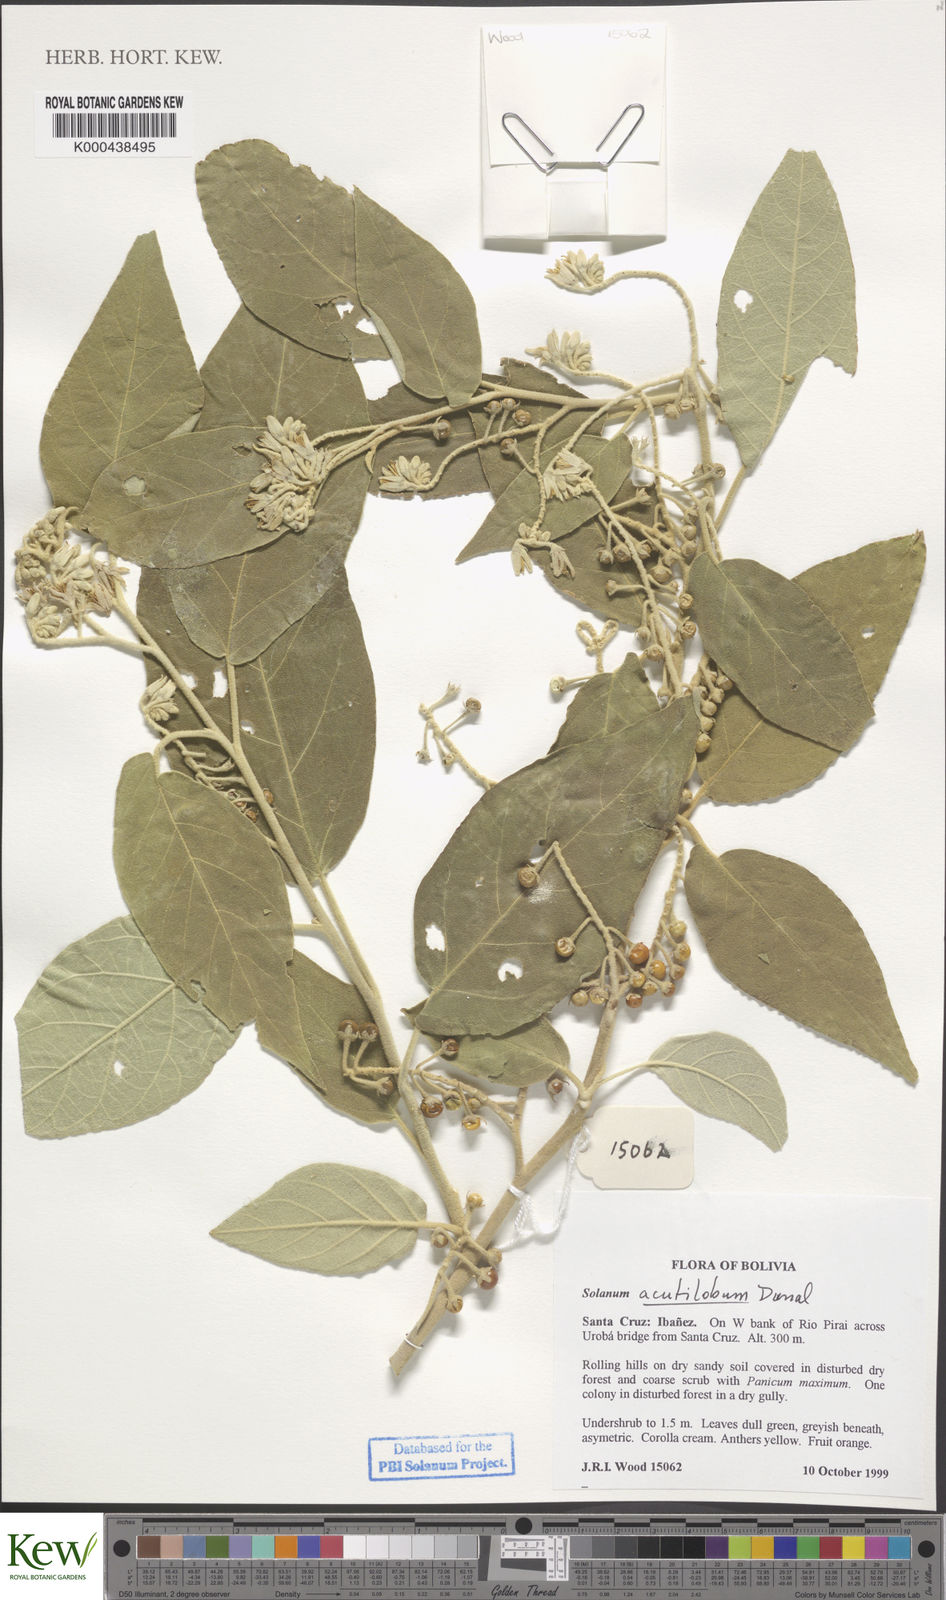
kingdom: Plantae
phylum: Tracheophyta
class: Magnoliopsida
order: Solanales
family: Solanaceae
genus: Solanum
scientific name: Solanum acutilobum
